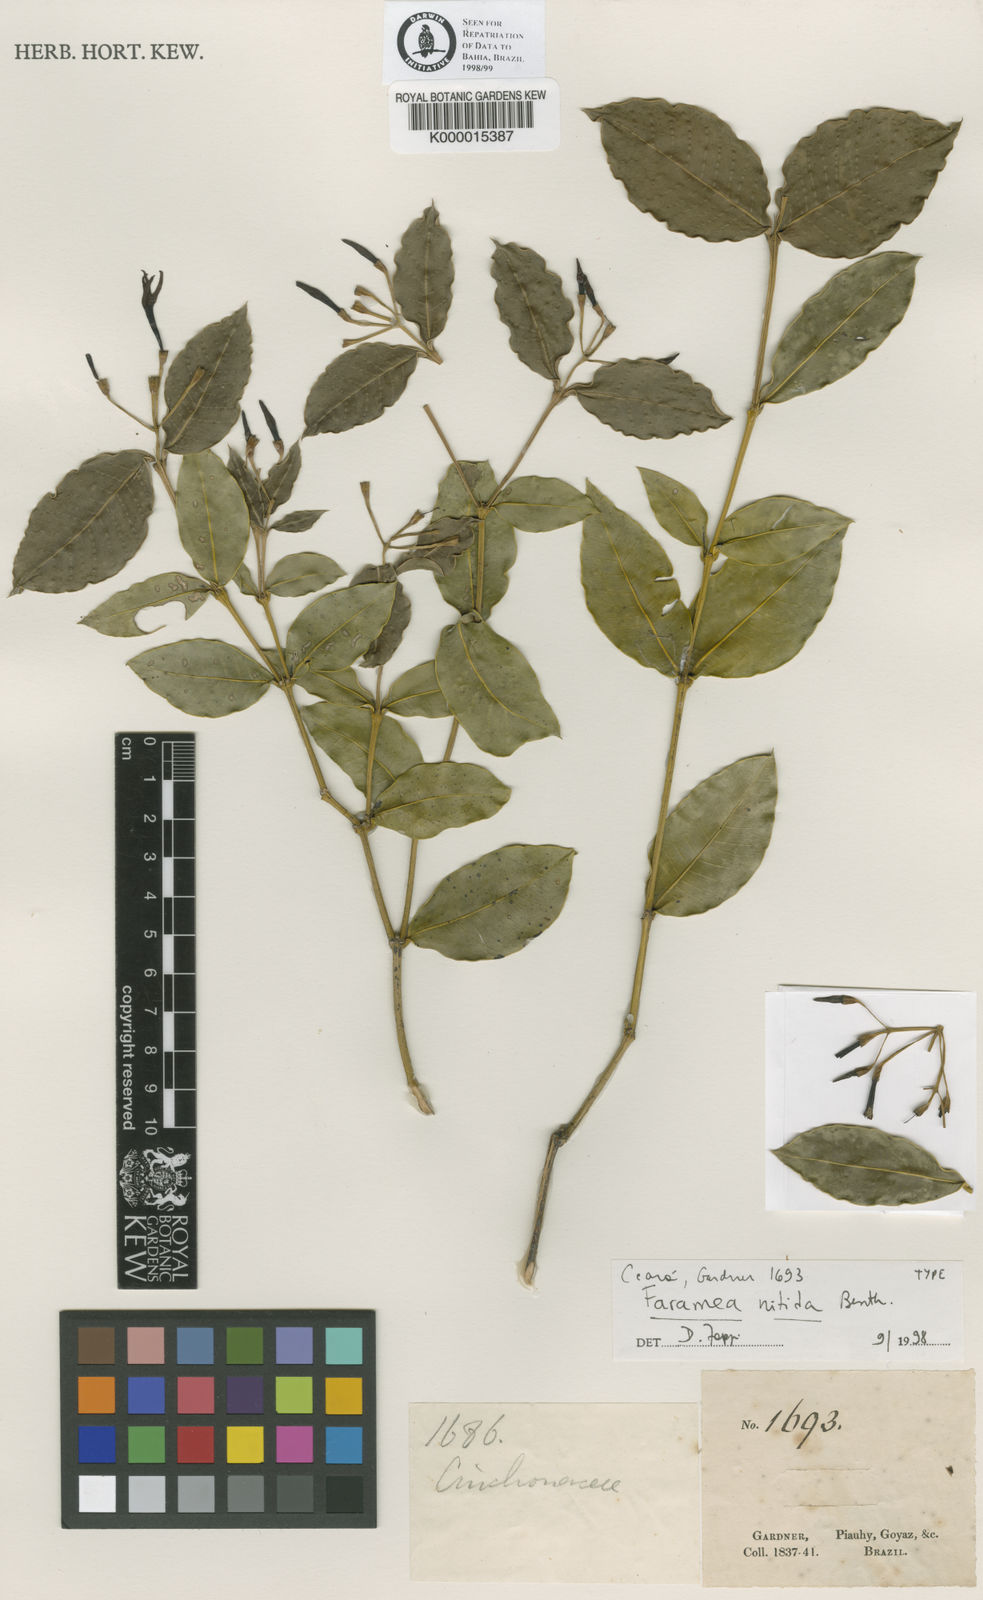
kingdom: Plantae
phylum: Tracheophyta
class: Magnoliopsida
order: Gentianales
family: Rubiaceae
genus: Faramea
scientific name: Faramea nitida
